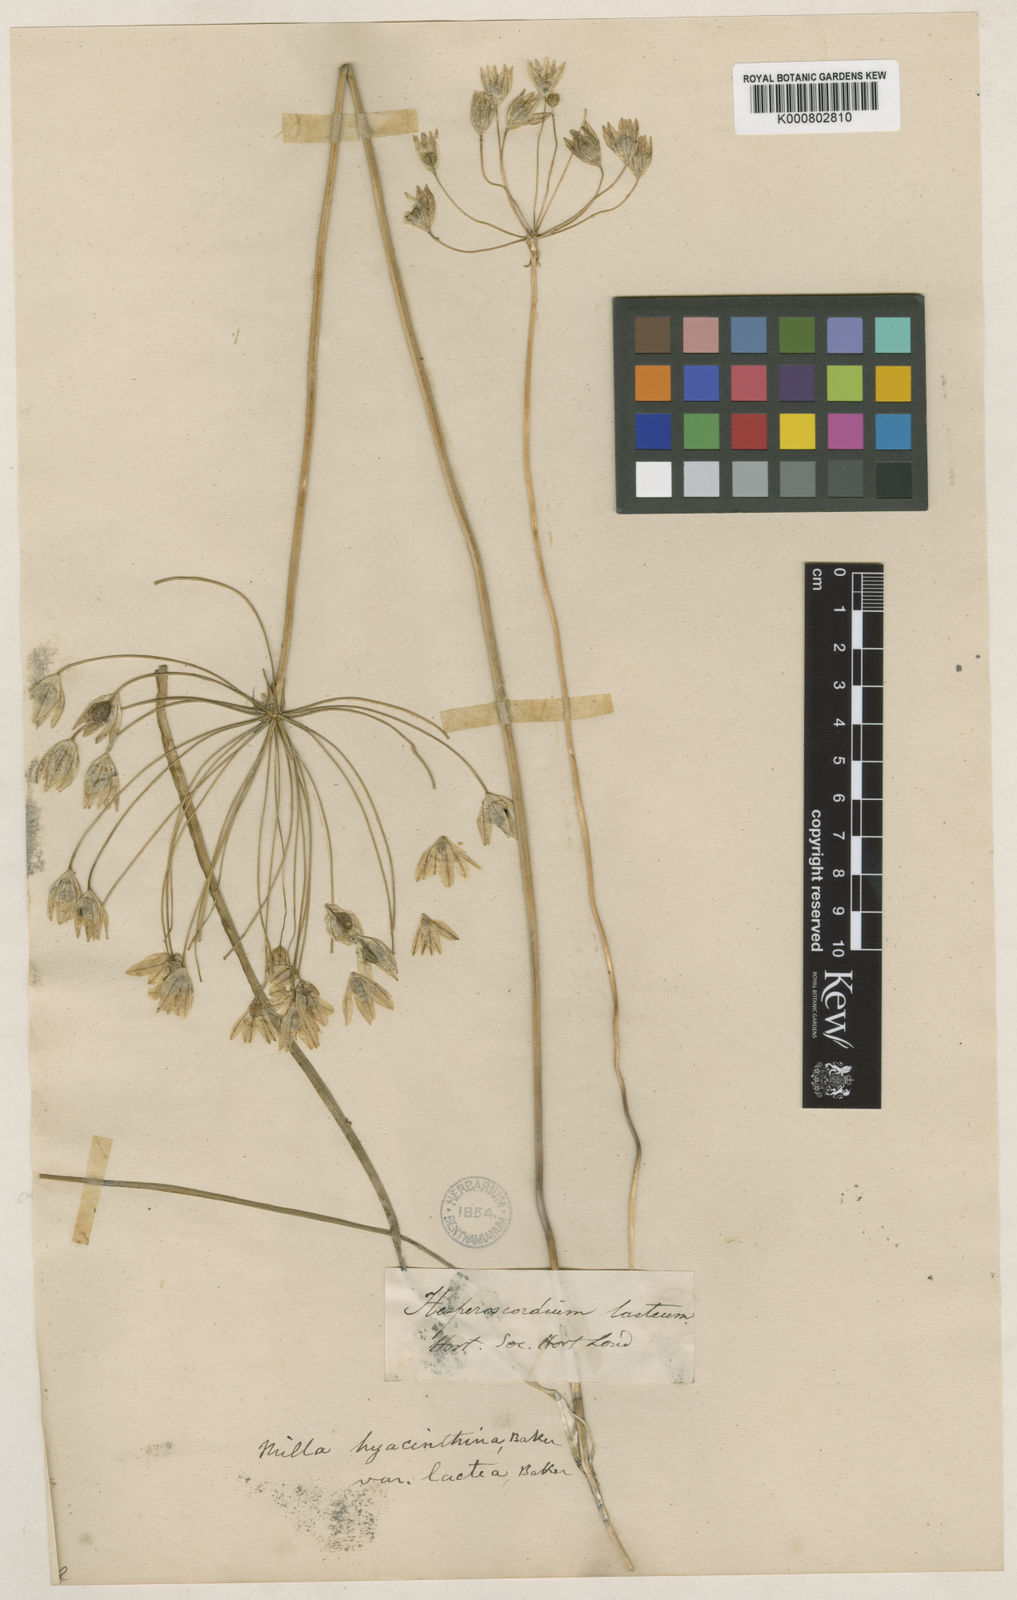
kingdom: Plantae
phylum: Tracheophyta
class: Liliopsida
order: Asparagales
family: Asparagaceae
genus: Triteleia
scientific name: Triteleia hyacinthina
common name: White brodiaea
